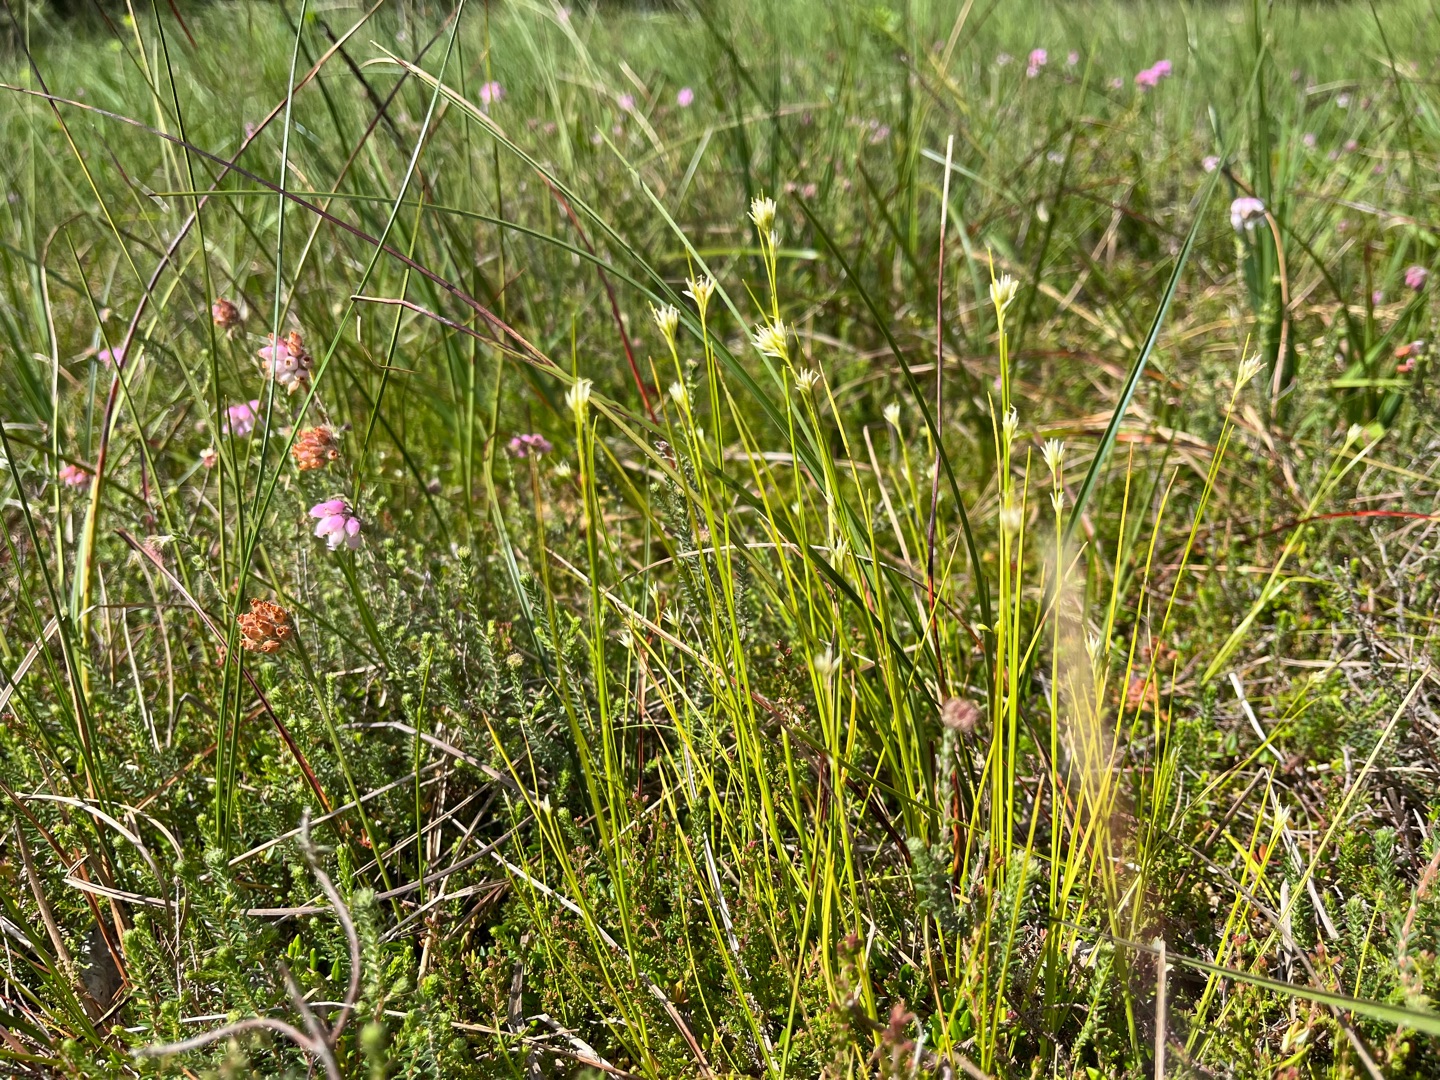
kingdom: Plantae
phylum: Tracheophyta
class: Liliopsida
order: Poales
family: Cyperaceae
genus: Rhynchospora
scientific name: Rhynchospora alba
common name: Hvid næbfrø
